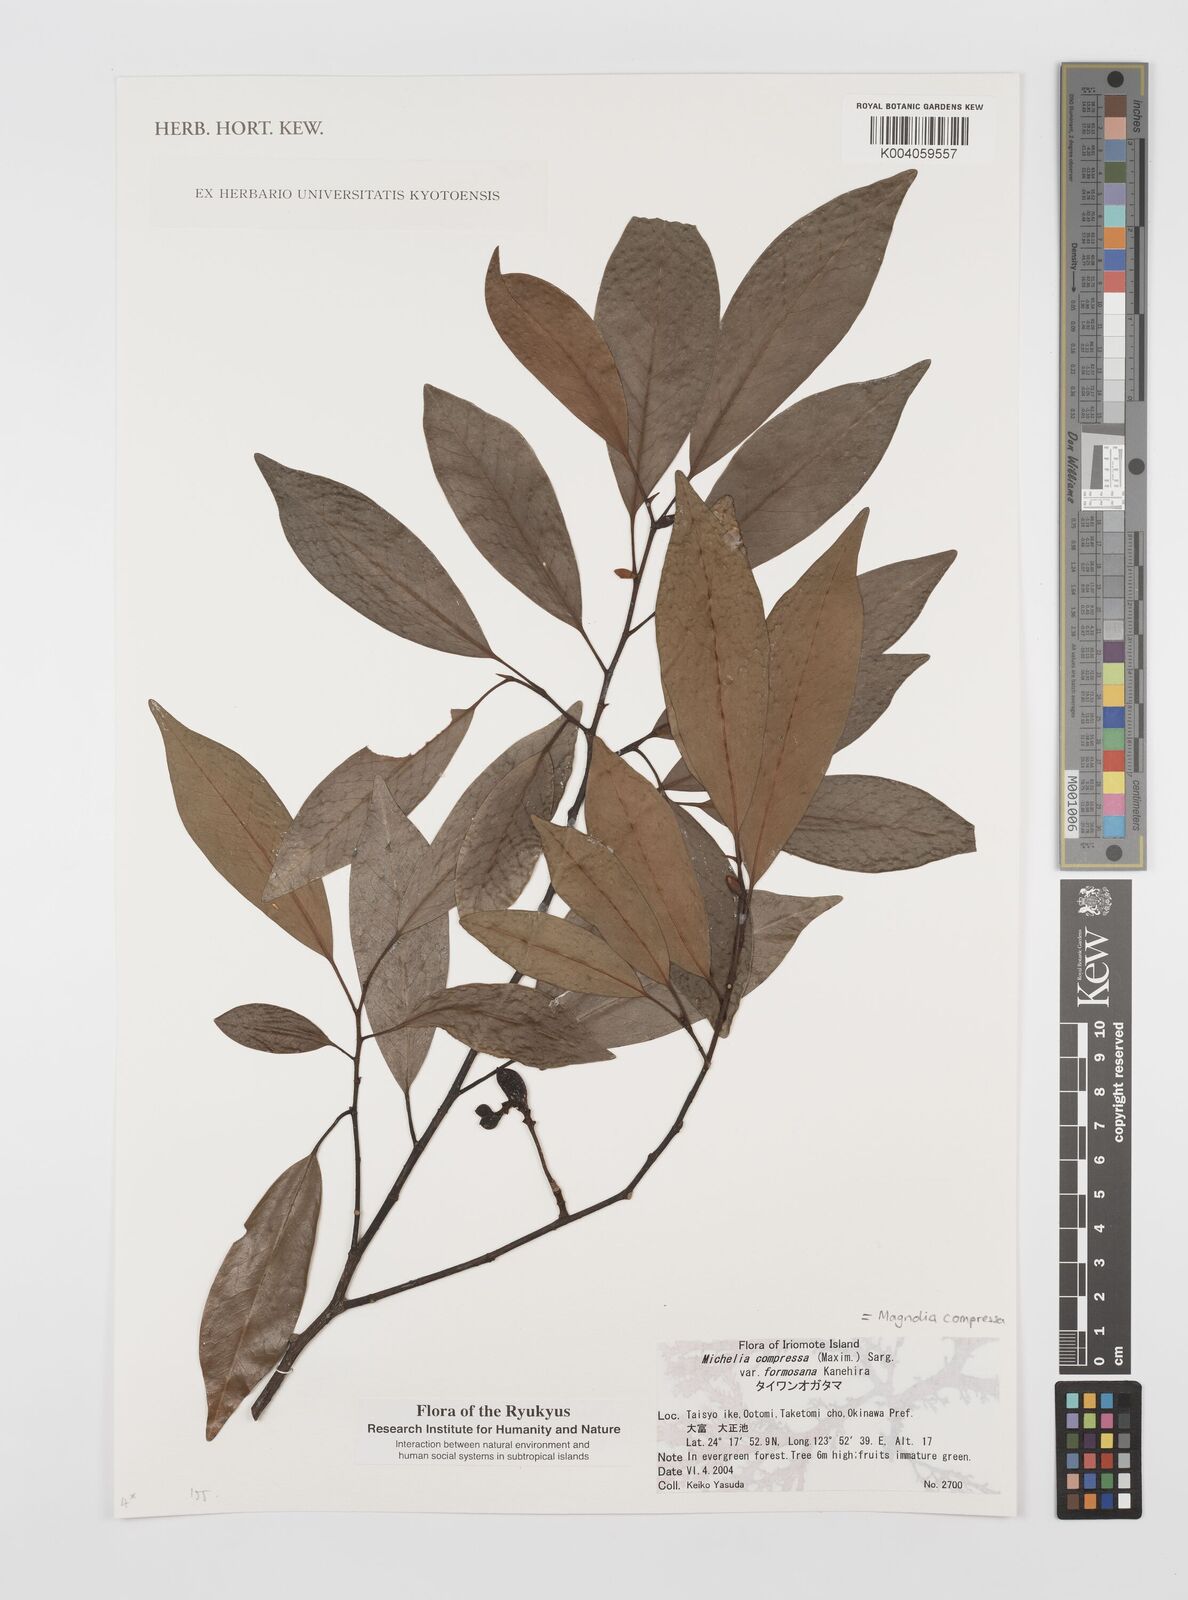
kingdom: Plantae
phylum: Tracheophyta
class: Magnoliopsida
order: Magnoliales
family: Magnoliaceae
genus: Magnolia
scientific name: Magnolia compressa
